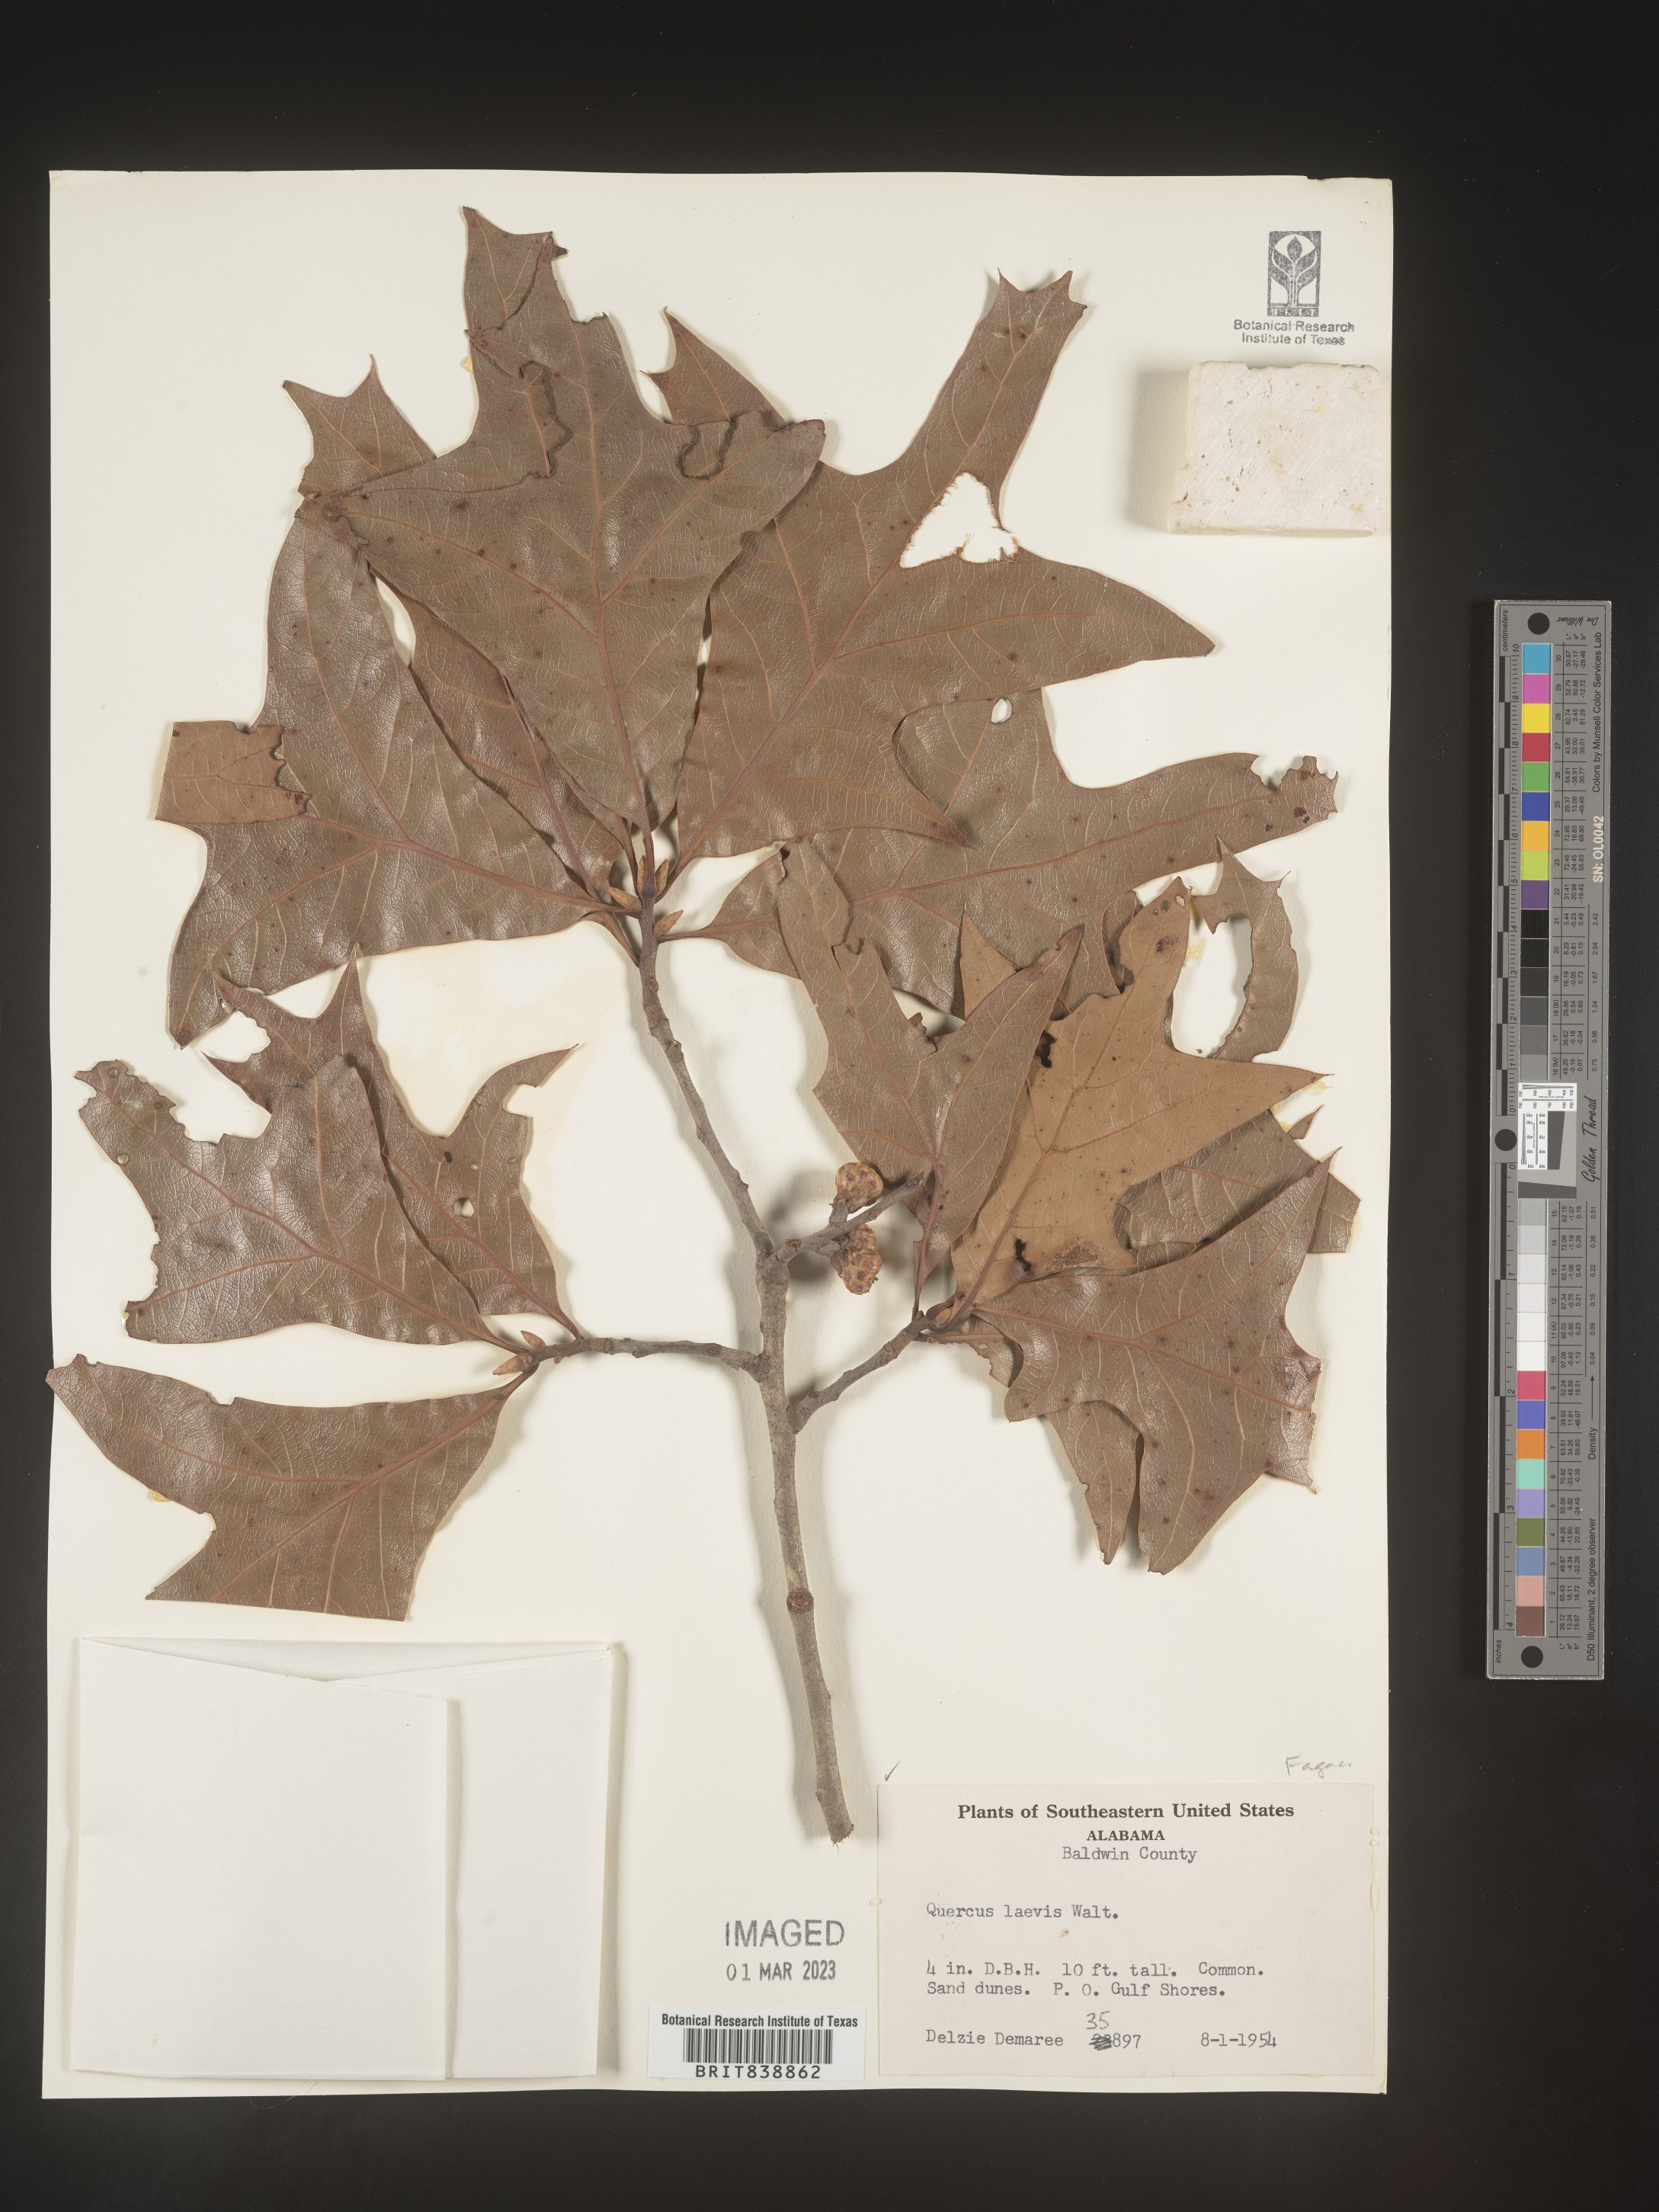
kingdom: Plantae
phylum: Tracheophyta
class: Magnoliopsida
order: Fagales
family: Fagaceae
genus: Quercus
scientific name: Quercus laevis
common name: Turkey oak
